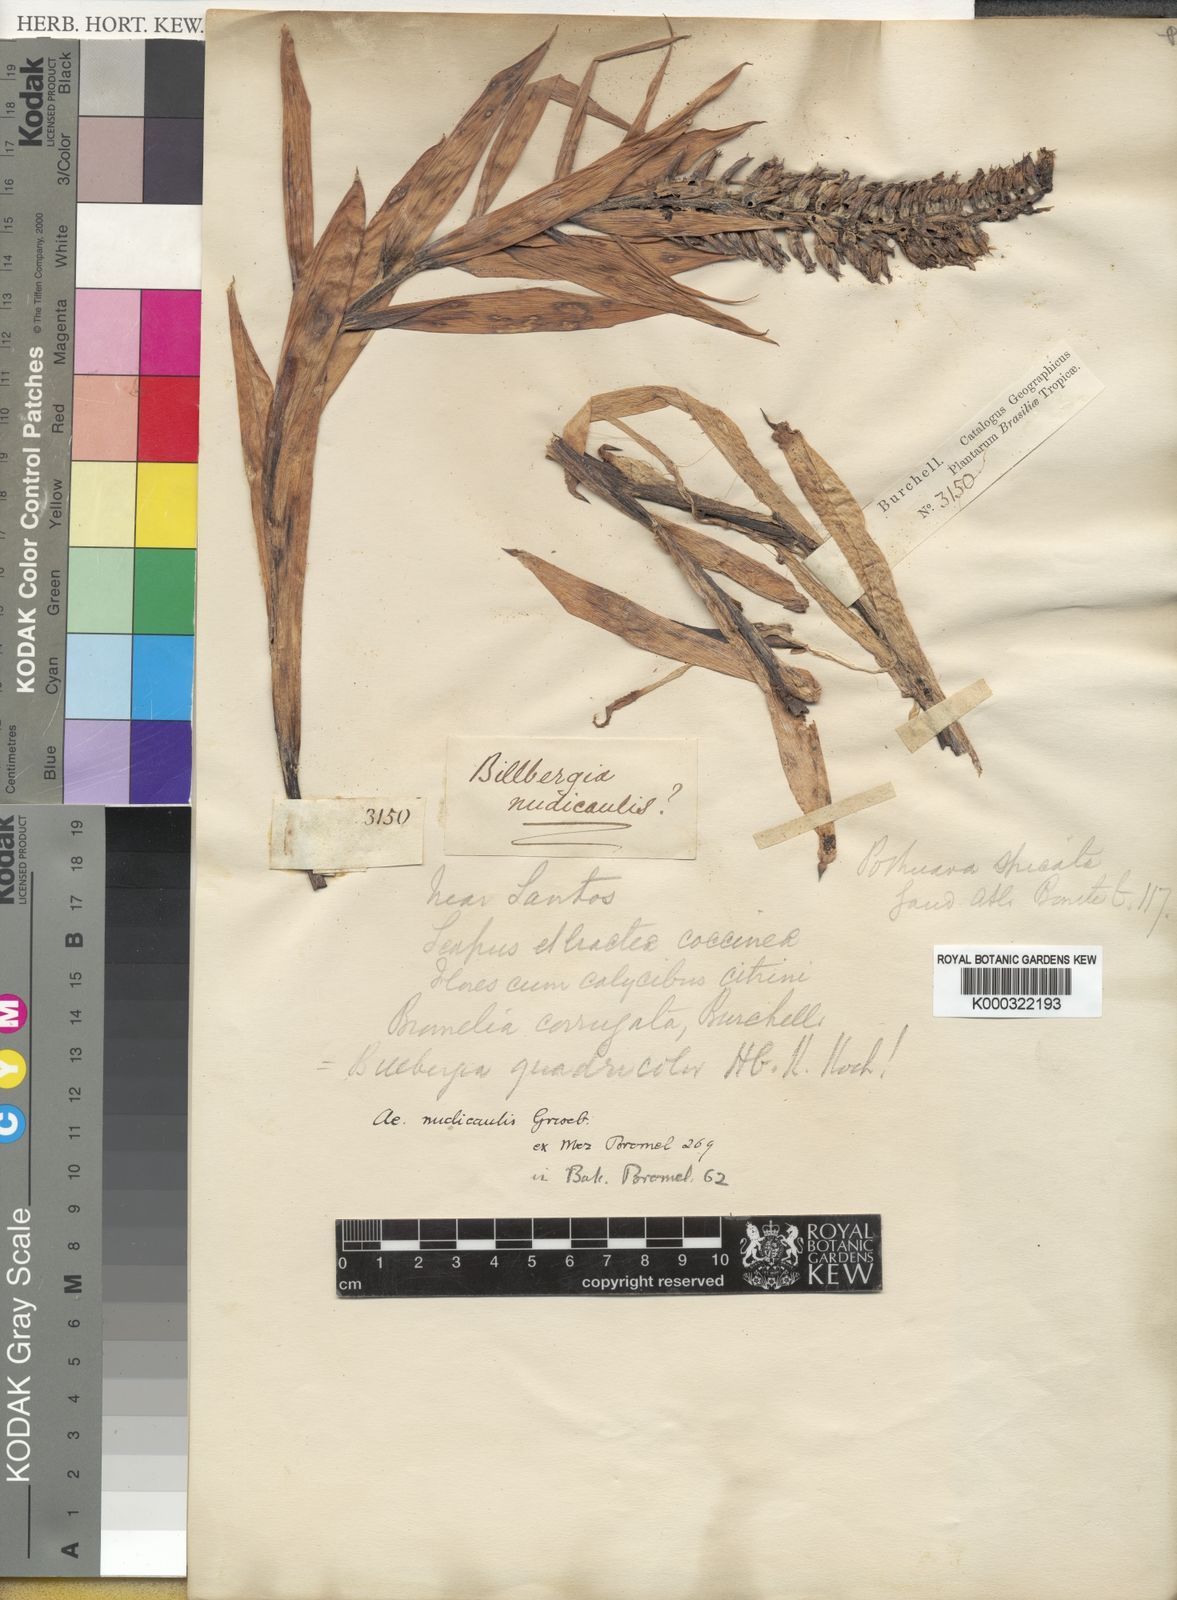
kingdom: Plantae
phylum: Tracheophyta
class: Liliopsida
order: Poales
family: Bromeliaceae
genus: Aechmea
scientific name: Aechmea nudicaulis
